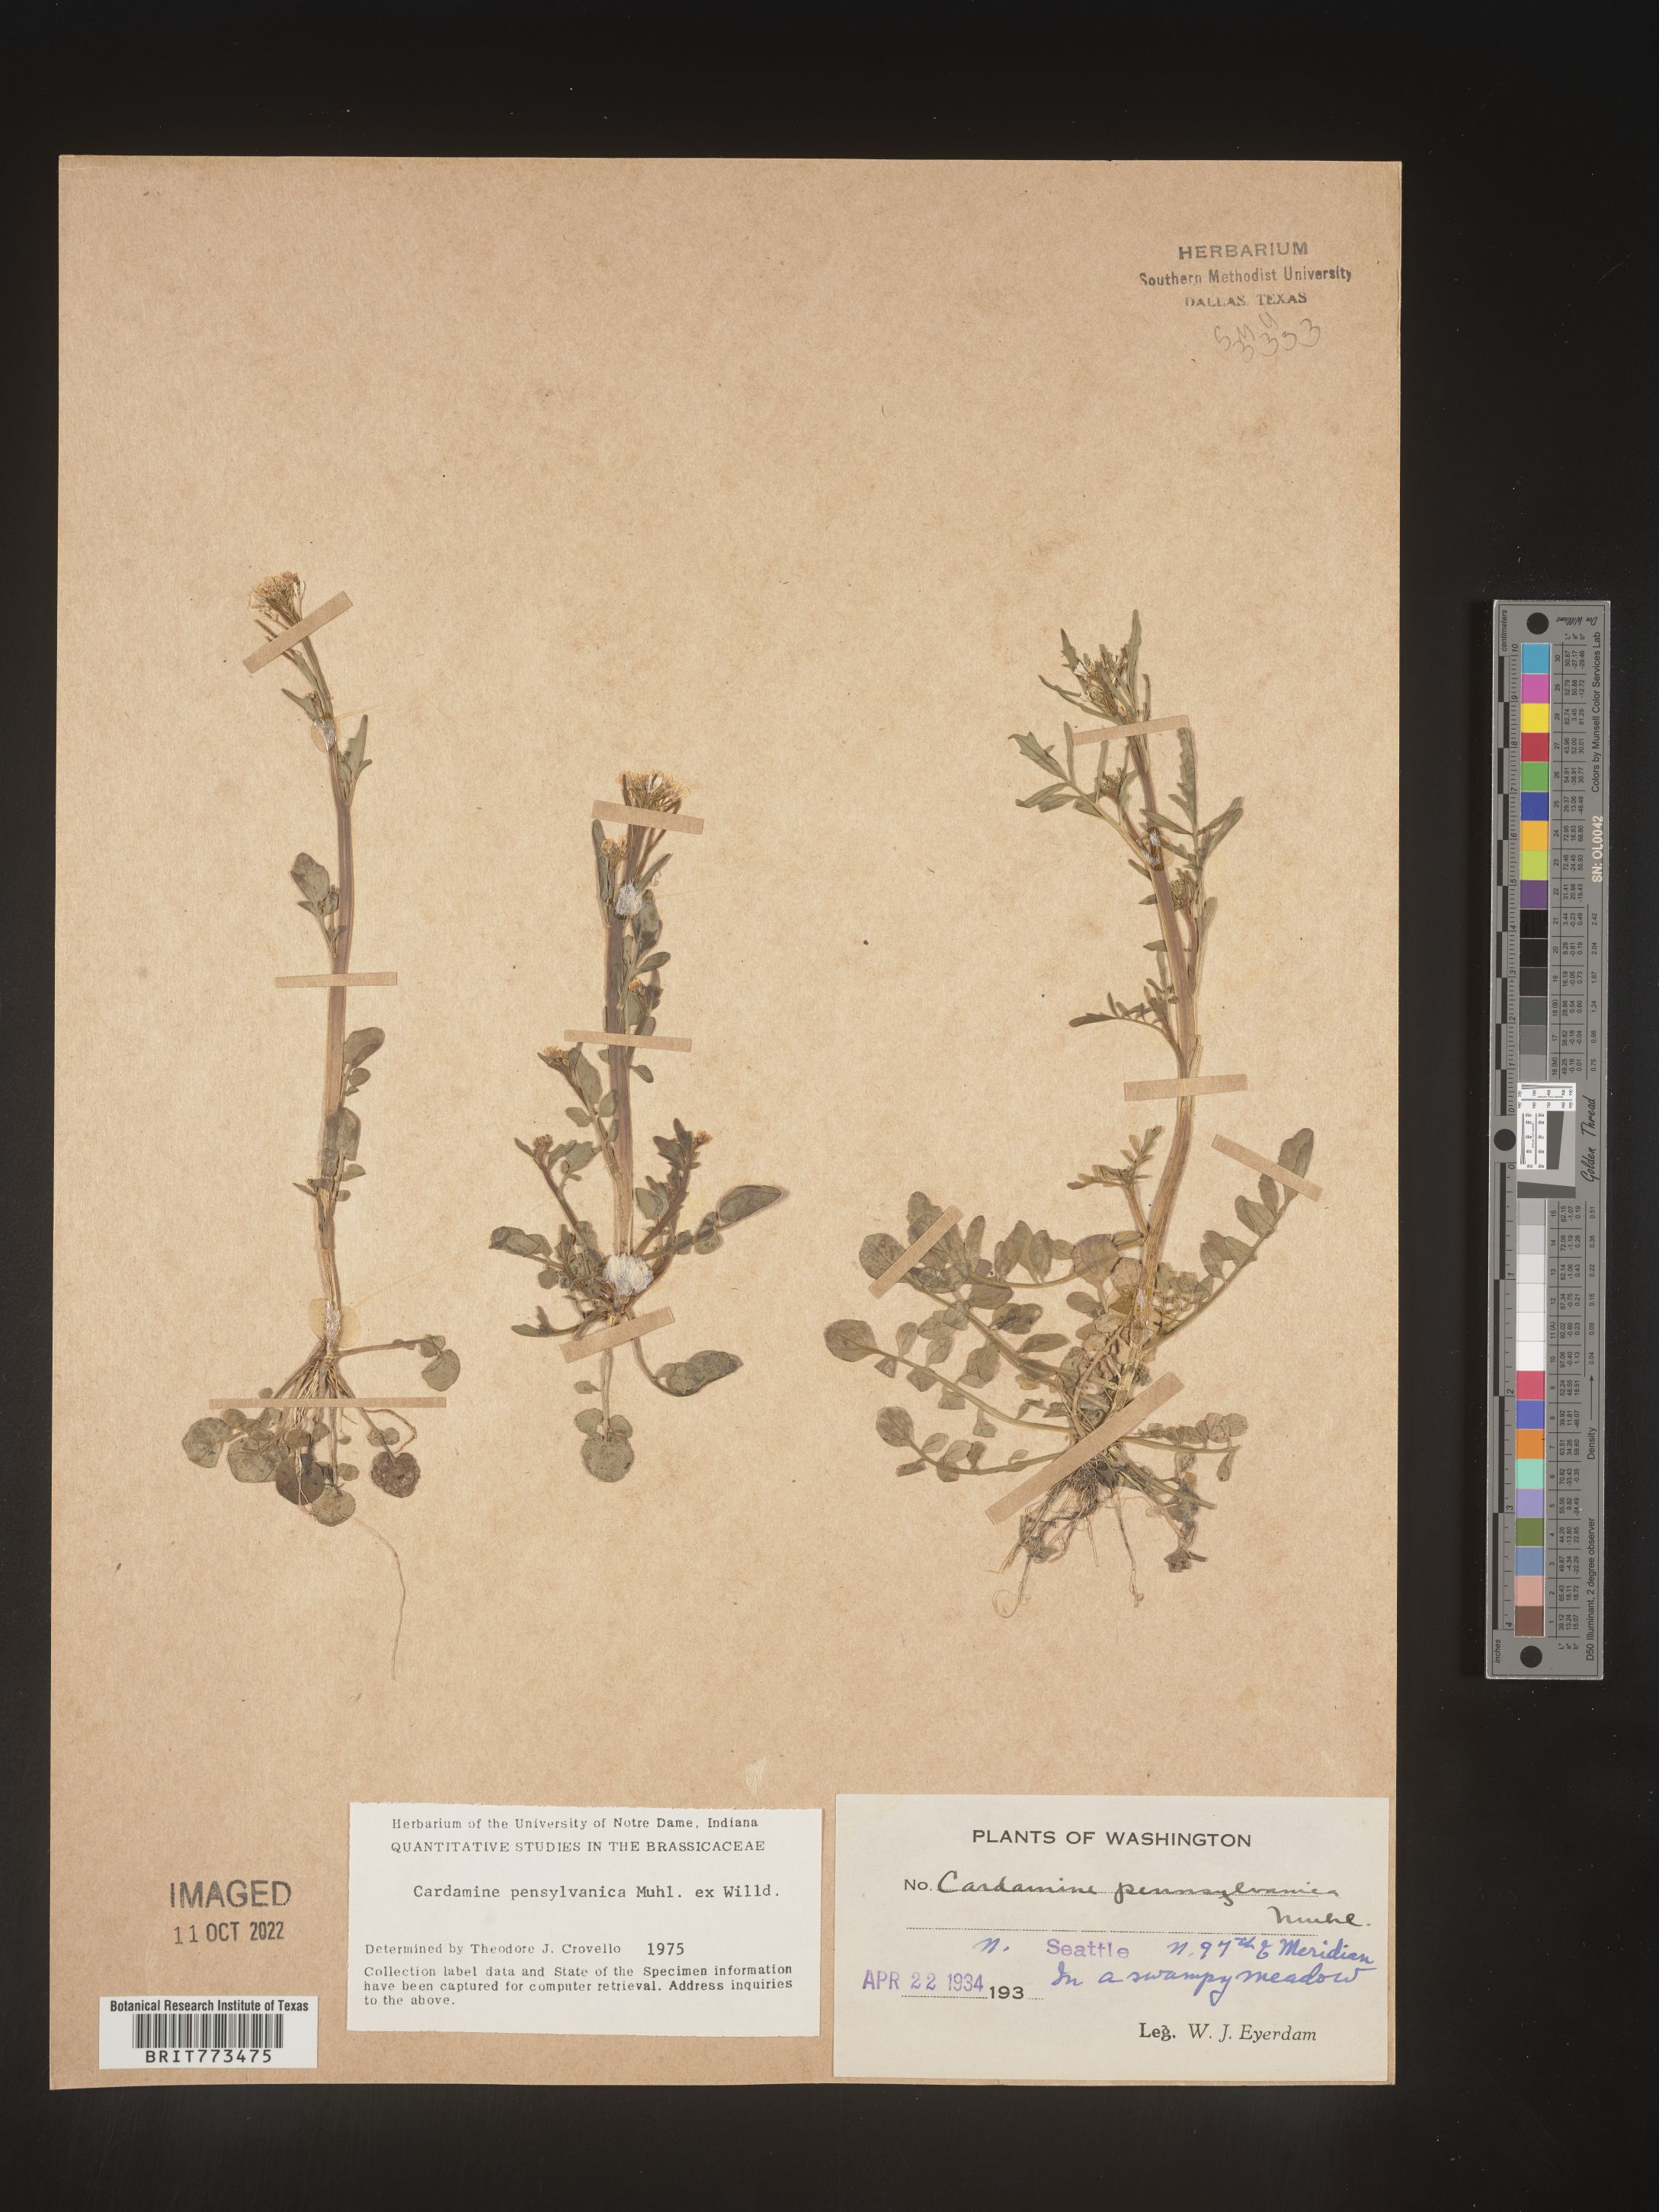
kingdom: Plantae
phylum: Tracheophyta
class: Magnoliopsida
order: Brassicales
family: Brassicaceae
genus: Cardamine
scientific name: Cardamine pensylvanica
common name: Pennsylvania bittercress
